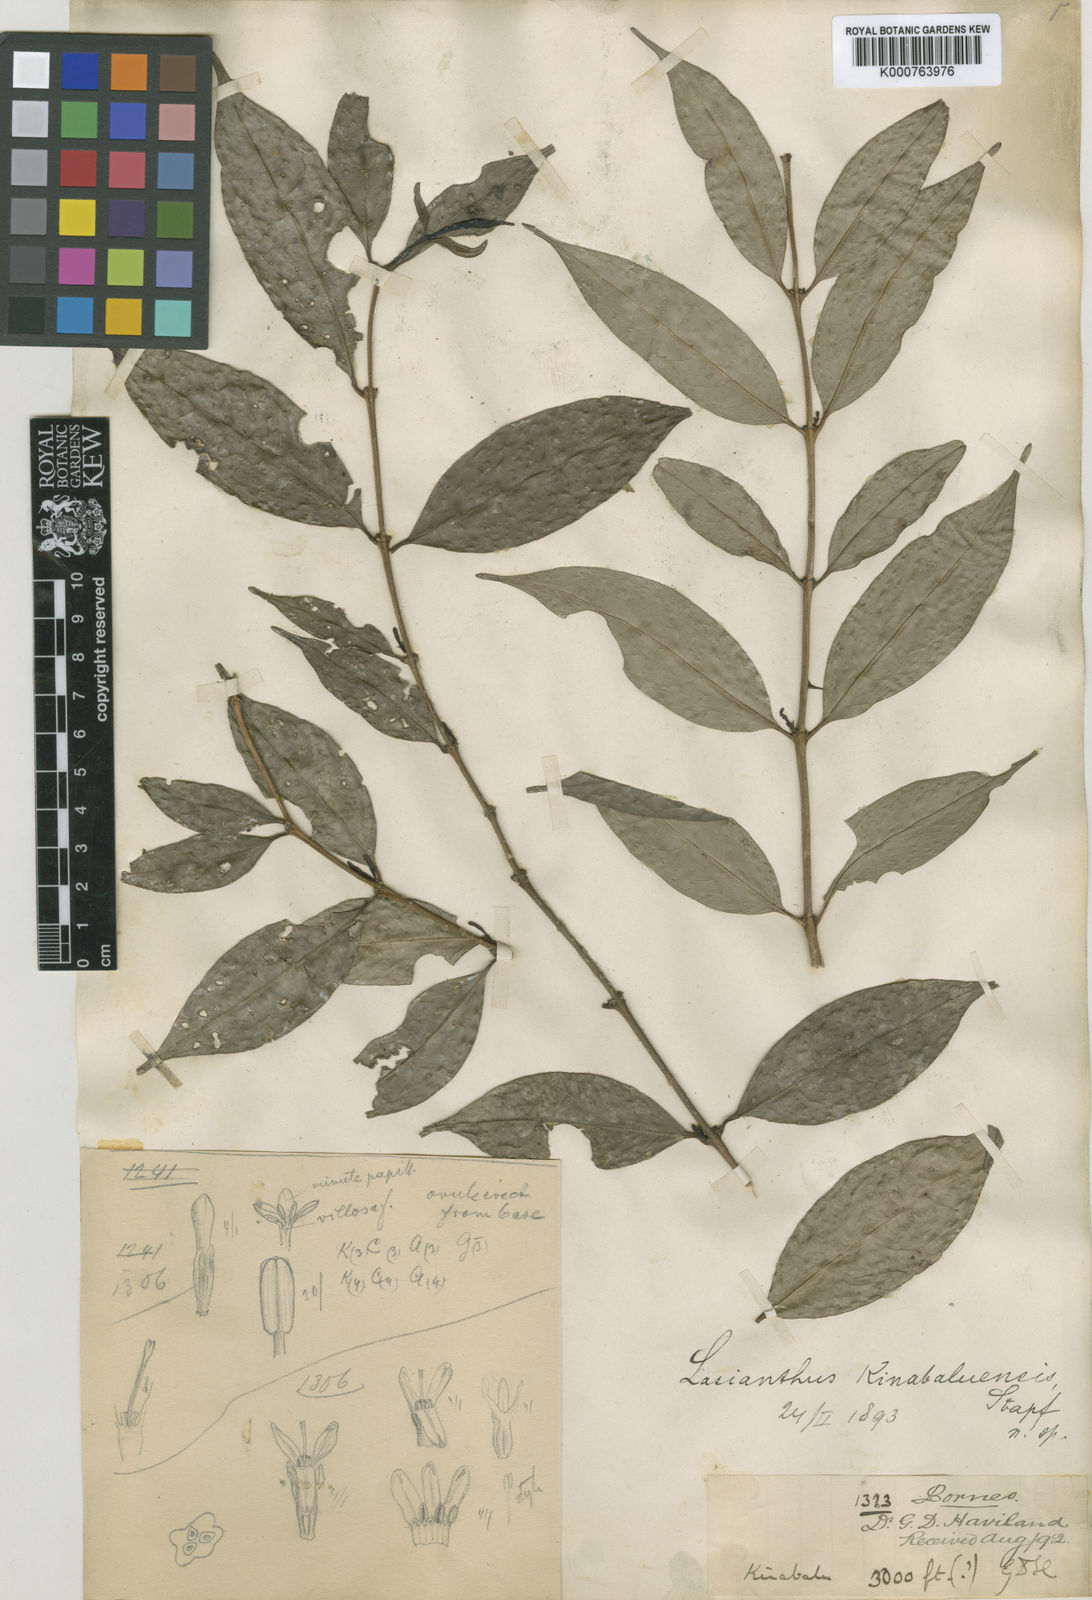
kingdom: Plantae
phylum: Tracheophyta
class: Magnoliopsida
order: Gentianales
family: Rubiaceae
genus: Lasianthus
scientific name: Lasianthus kinabaluensis
